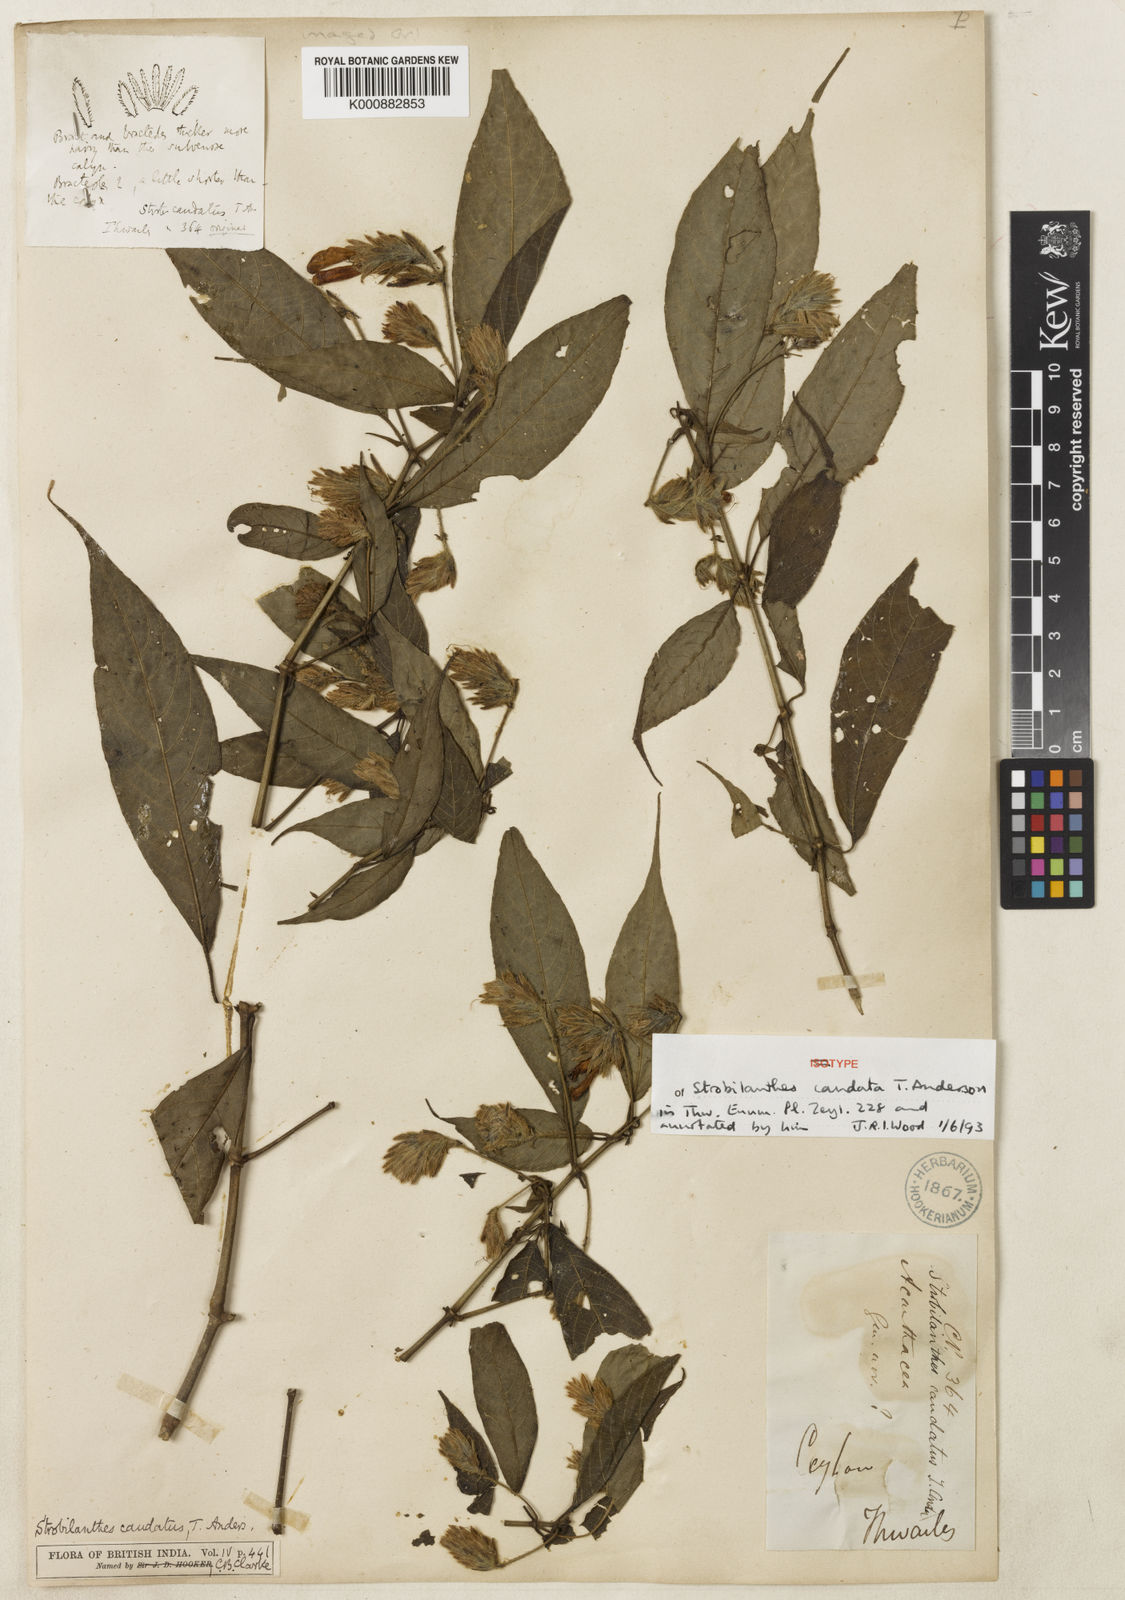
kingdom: Plantae
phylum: Tracheophyta
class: Magnoliopsida
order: Lamiales
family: Acanthaceae
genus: Strobilanthes
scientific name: Strobilanthes caudata
